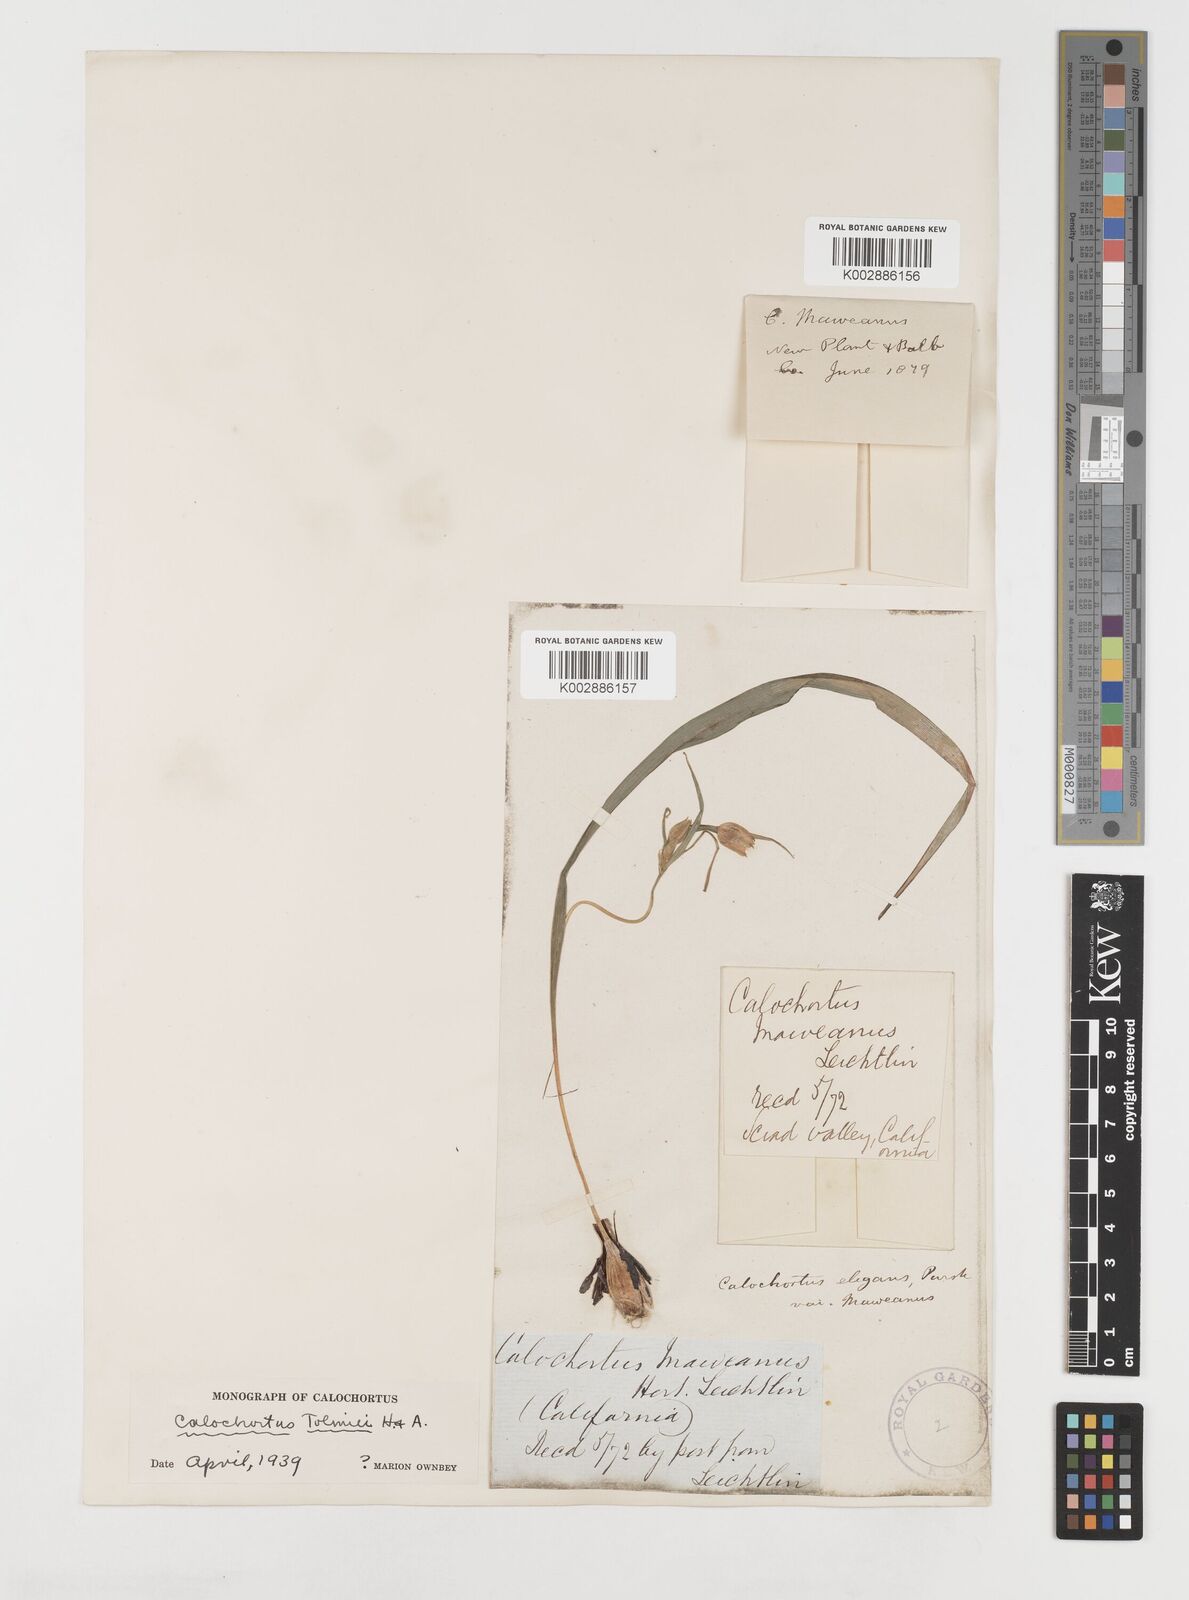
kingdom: Plantae
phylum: Tracheophyta
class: Liliopsida
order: Liliales
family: Liliaceae
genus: Calochortus
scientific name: Calochortus tolmiei
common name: Pussy-ears
